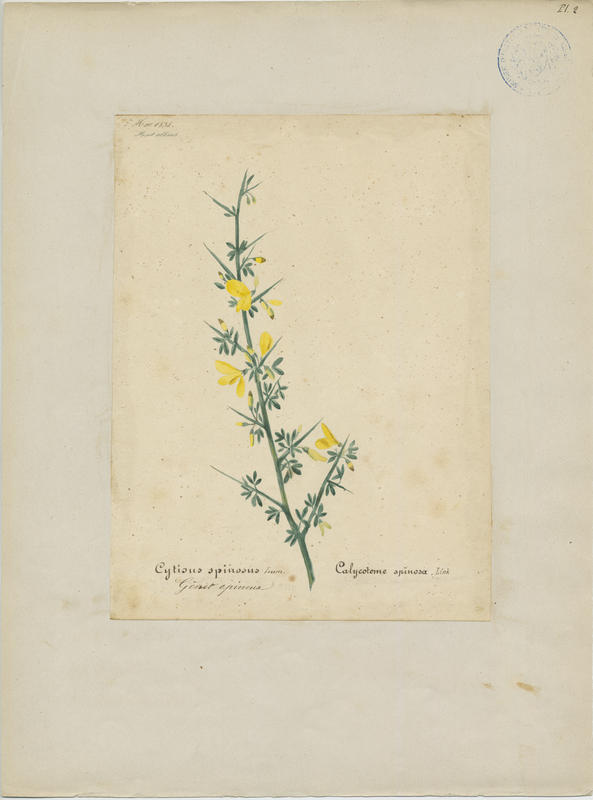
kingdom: Plantae
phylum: Tracheophyta
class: Magnoliopsida
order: Fabales
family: Fabaceae
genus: Calicotome
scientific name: Calicotome spinosa
